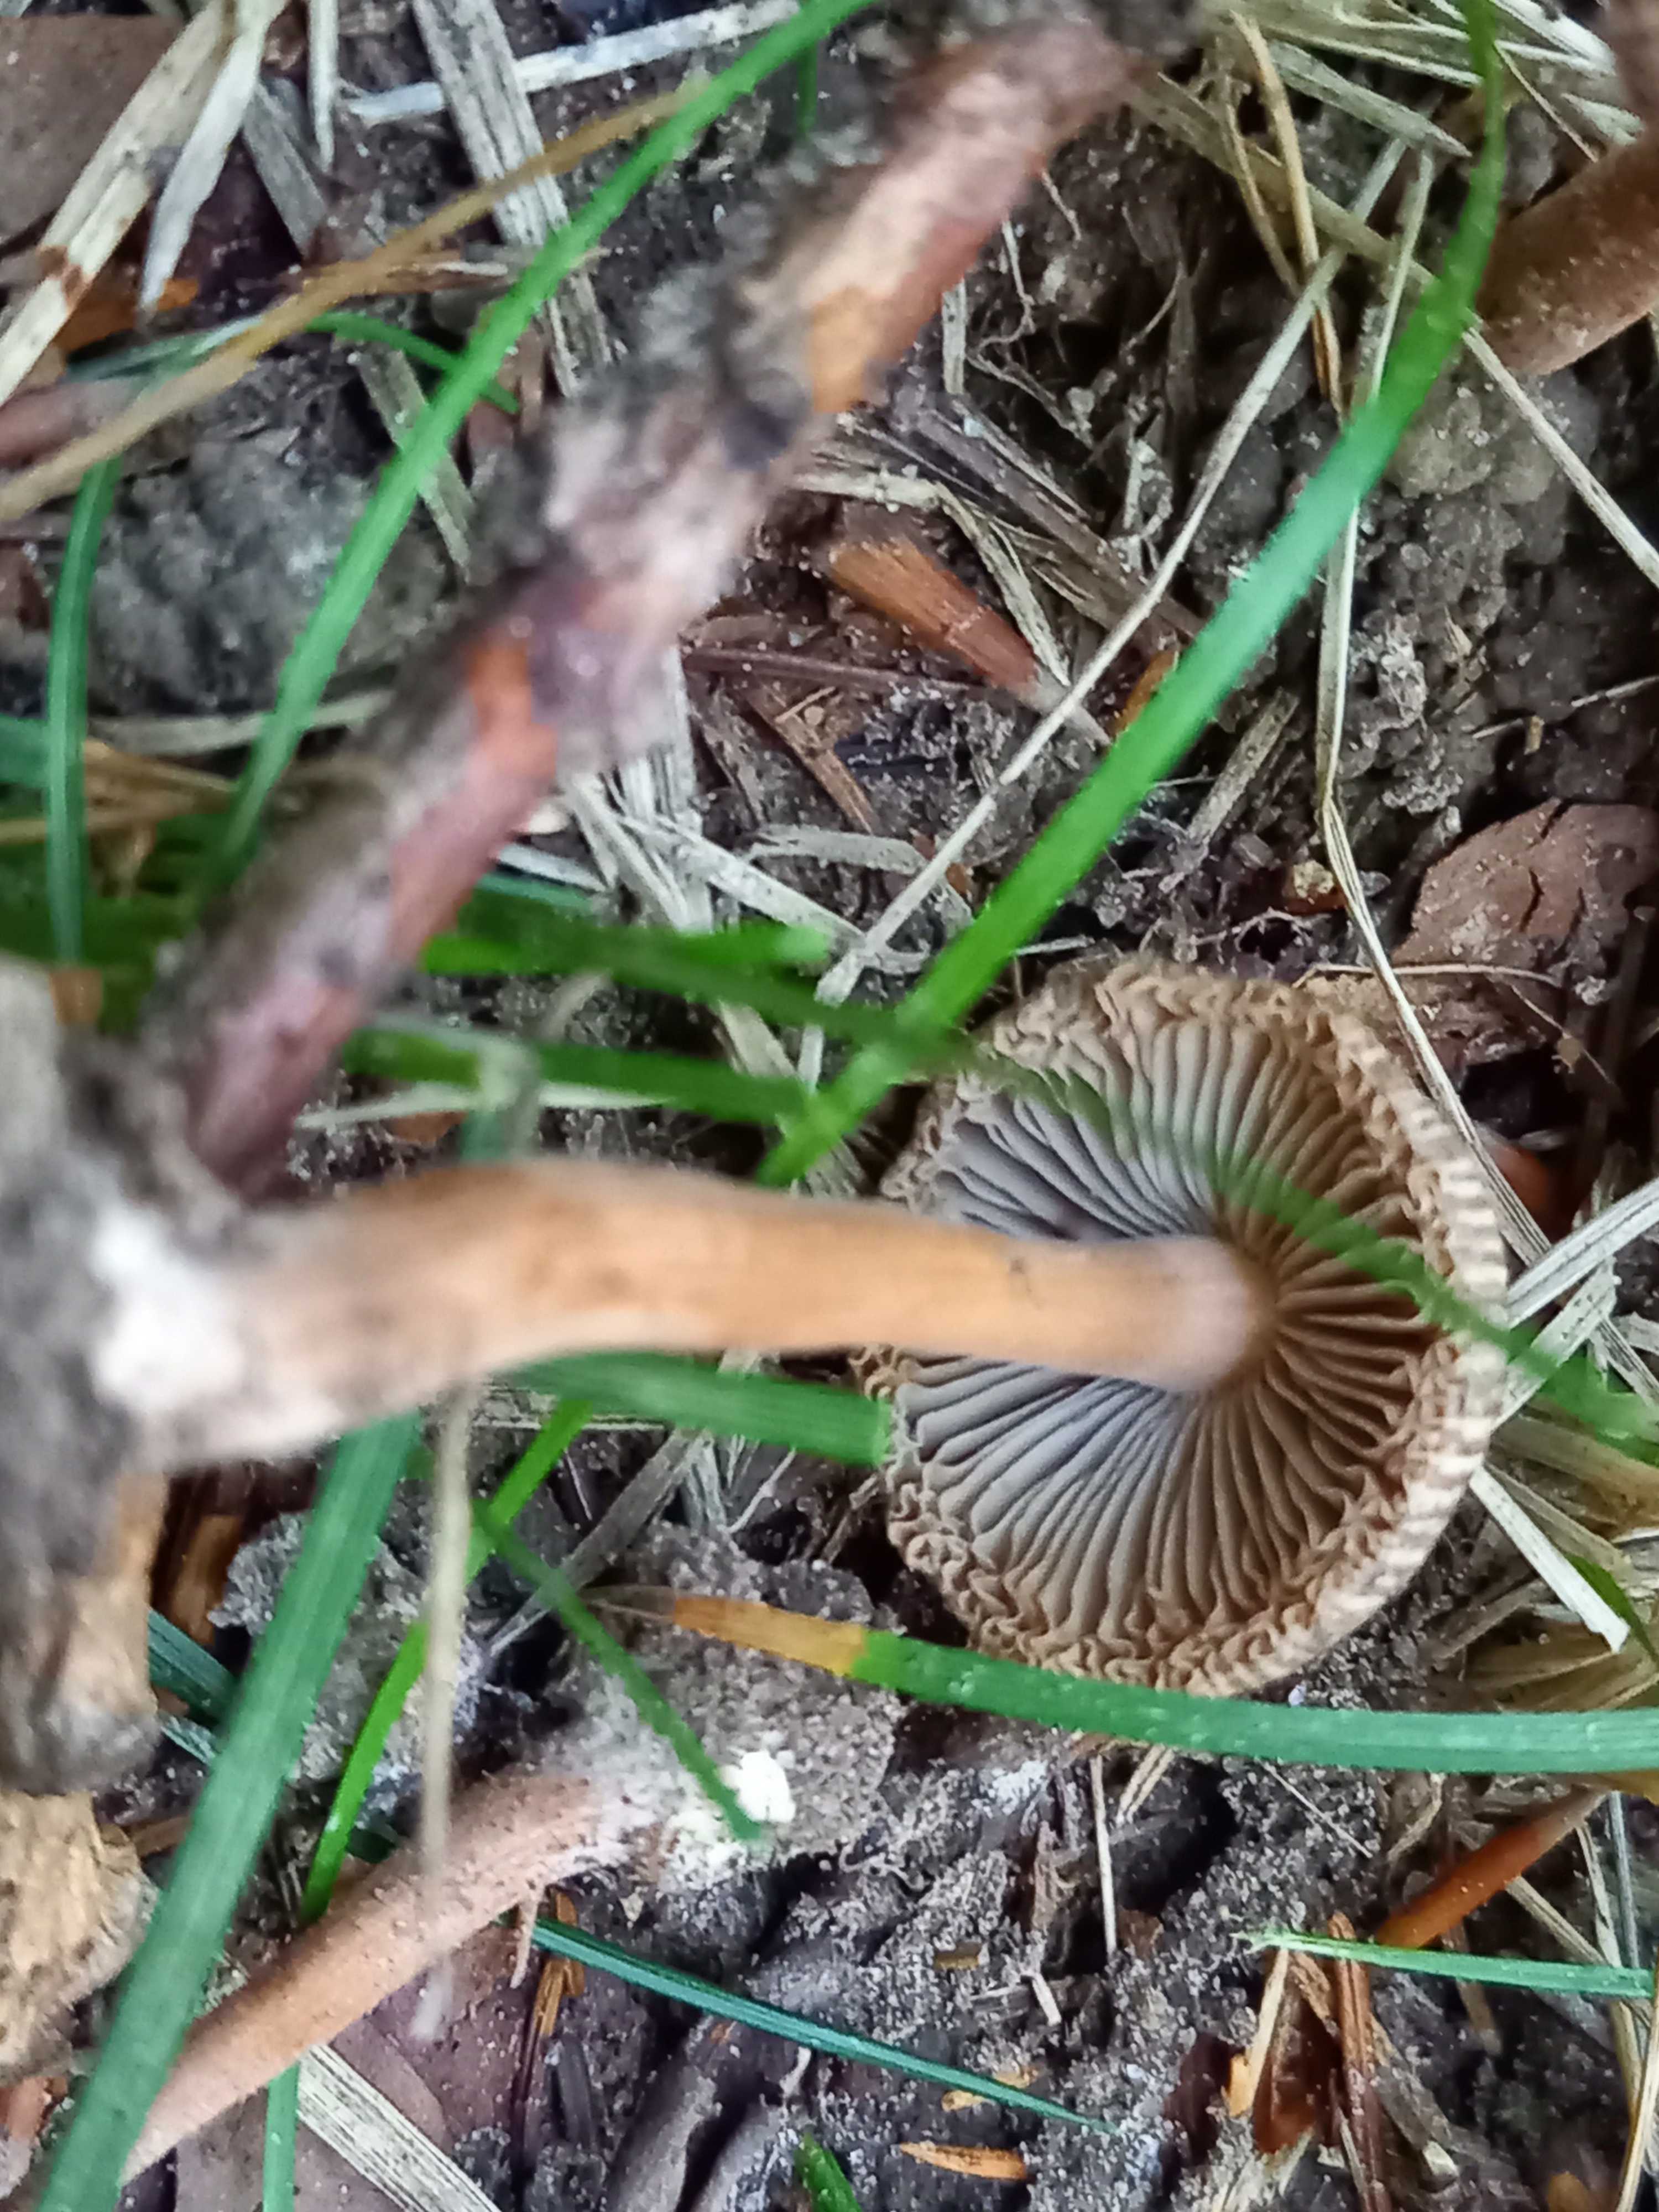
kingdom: Fungi
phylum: Basidiomycota
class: Agaricomycetes
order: Agaricales
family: Inocybaceae
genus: Inocybe
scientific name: Inocybe asterospora
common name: stjernesporet trævlhat
